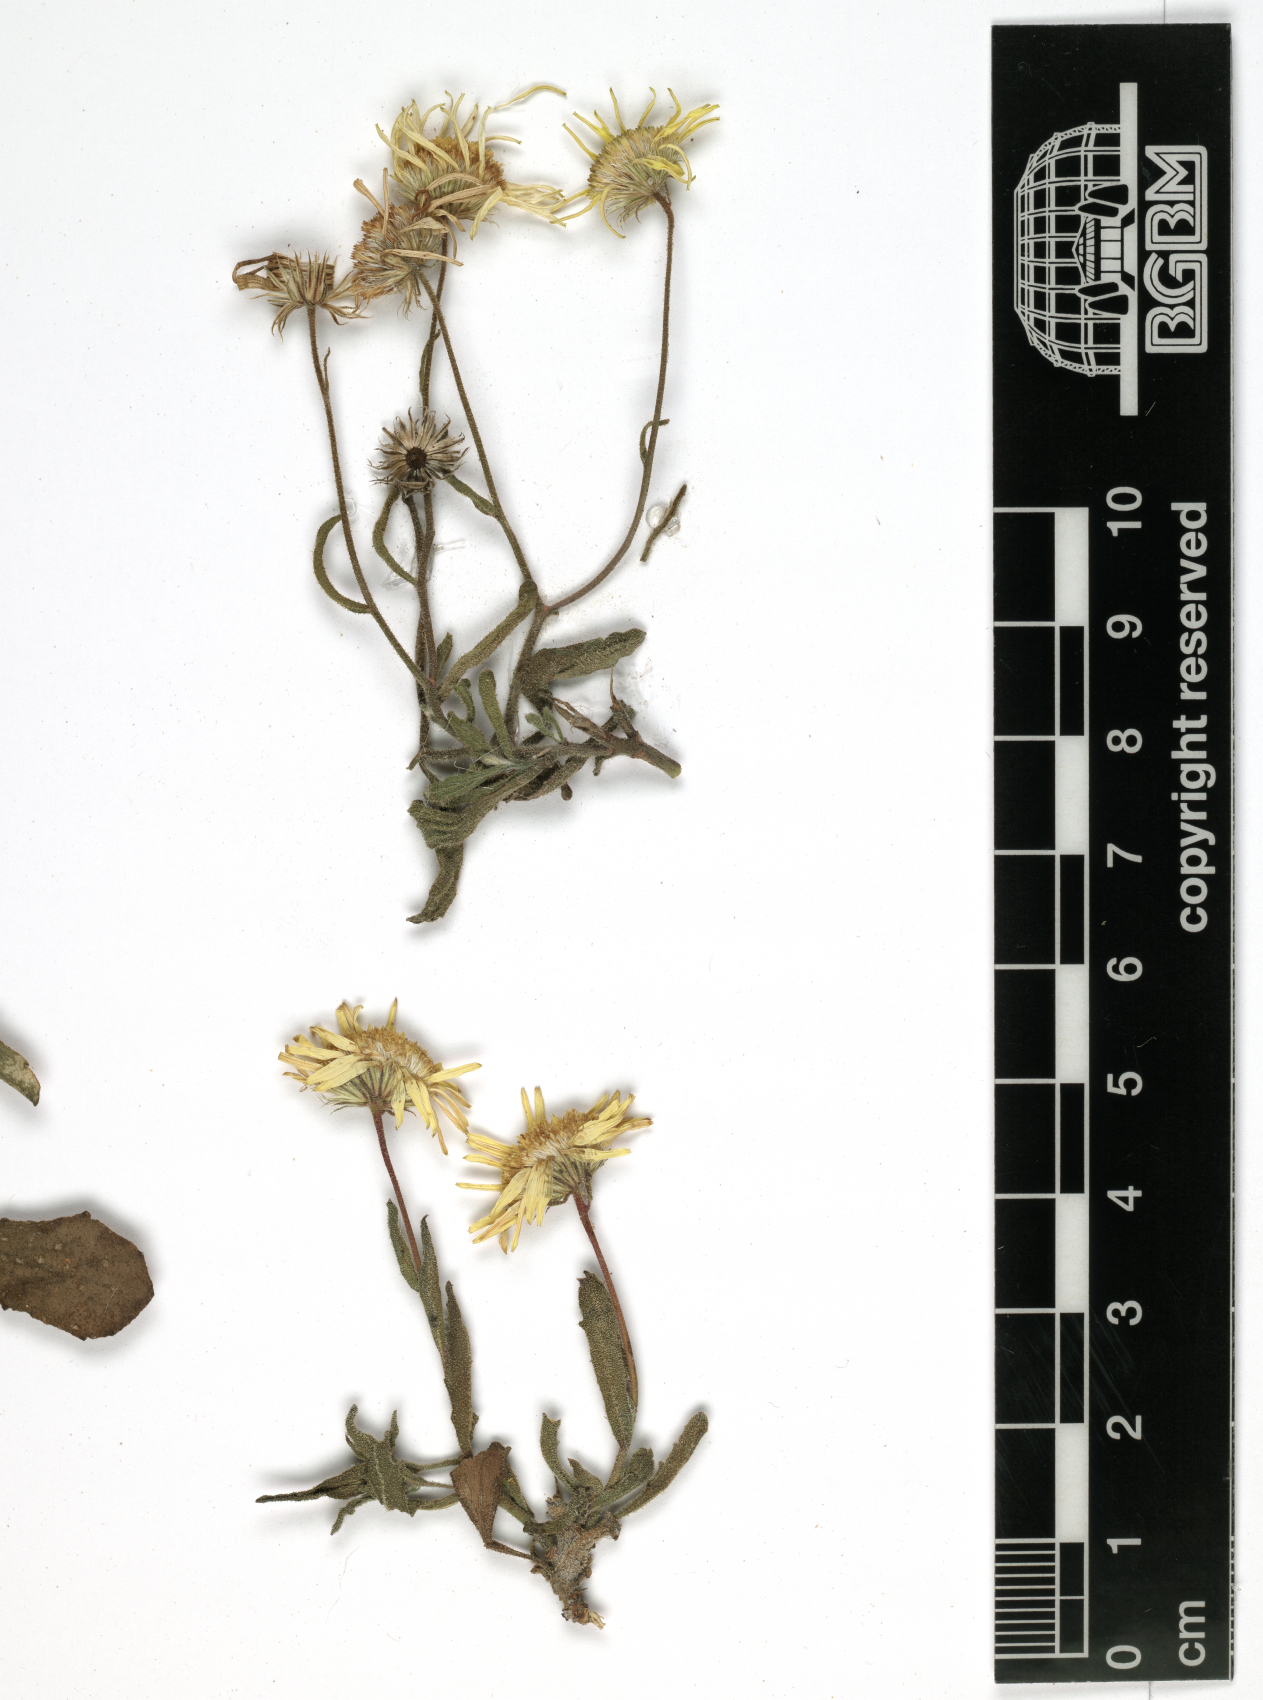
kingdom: Plantae
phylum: Tracheophyta
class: Magnoliopsida
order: Asterales
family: Asteraceae
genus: Pulicaria
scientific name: Pulicaria diversifolia
